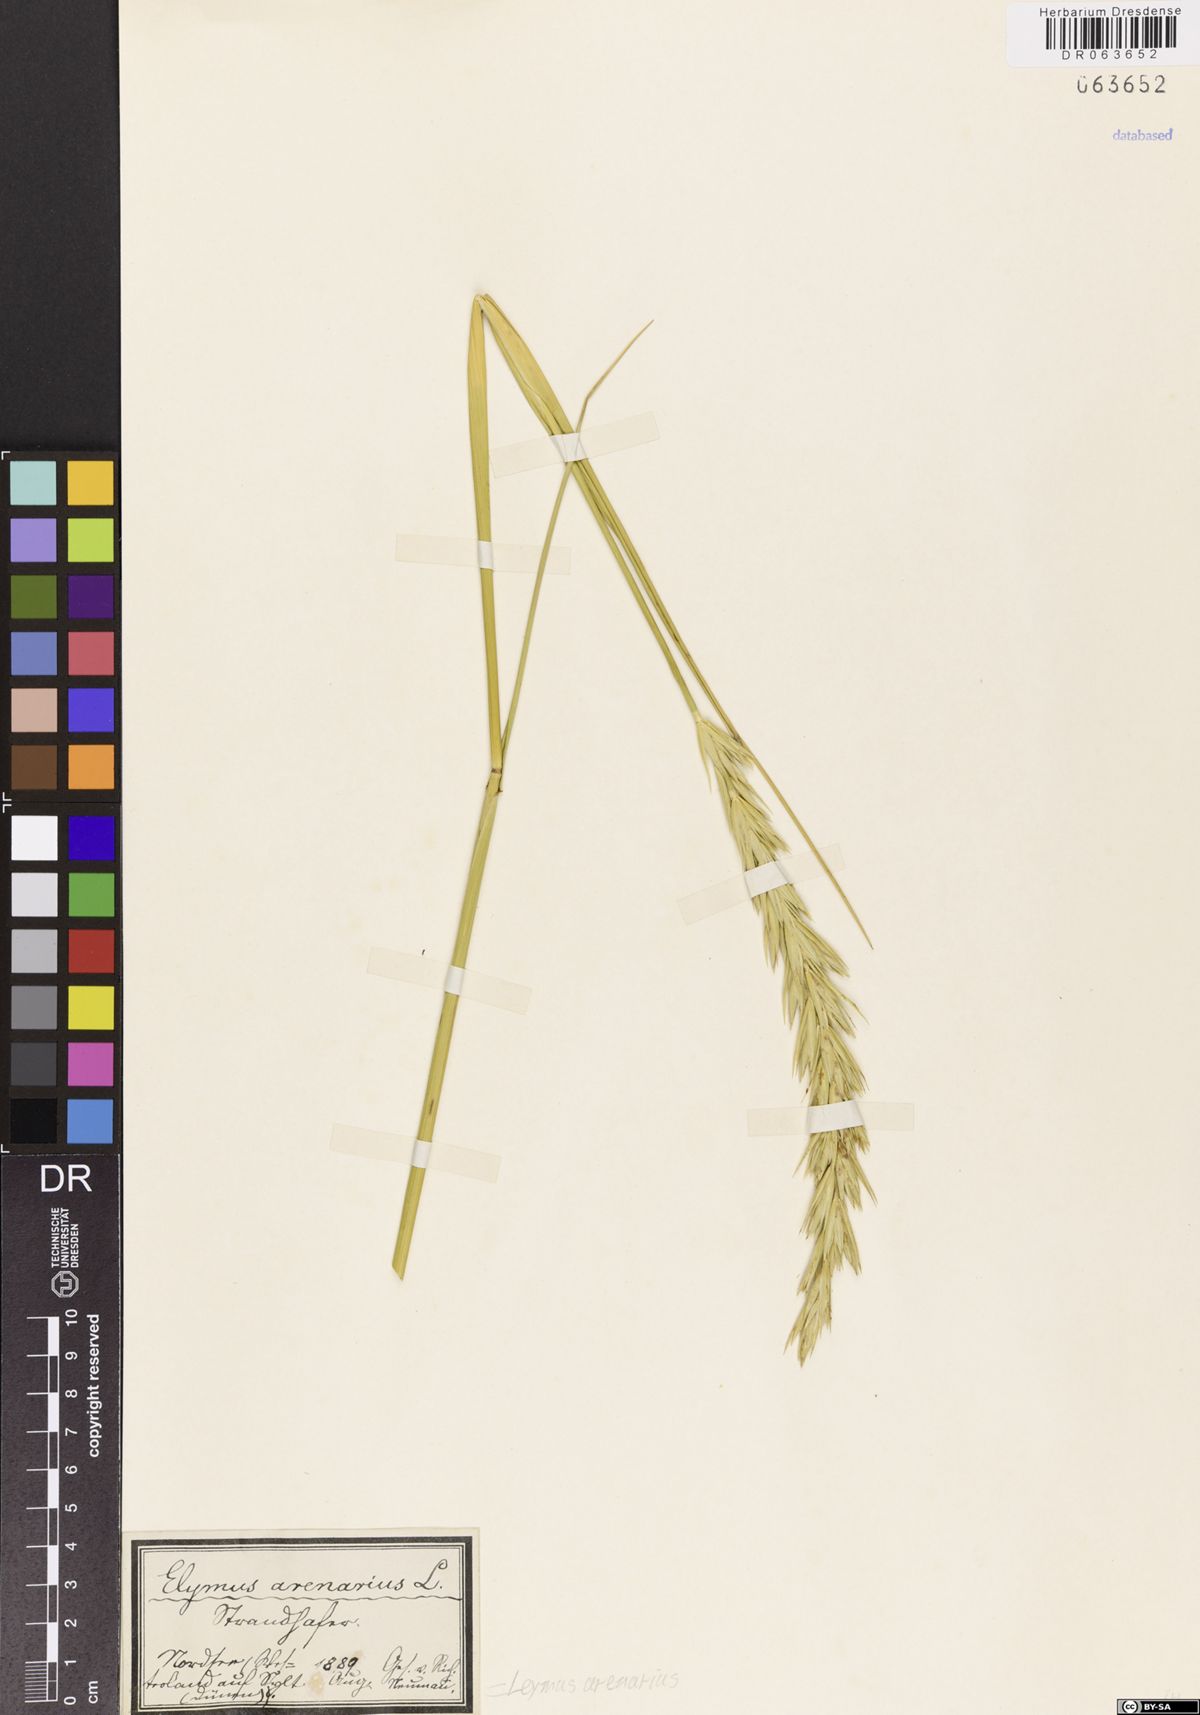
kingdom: Plantae
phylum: Tracheophyta
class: Liliopsida
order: Poales
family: Poaceae
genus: Leymus
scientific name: Leymus arenarius
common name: Lyme-grass
